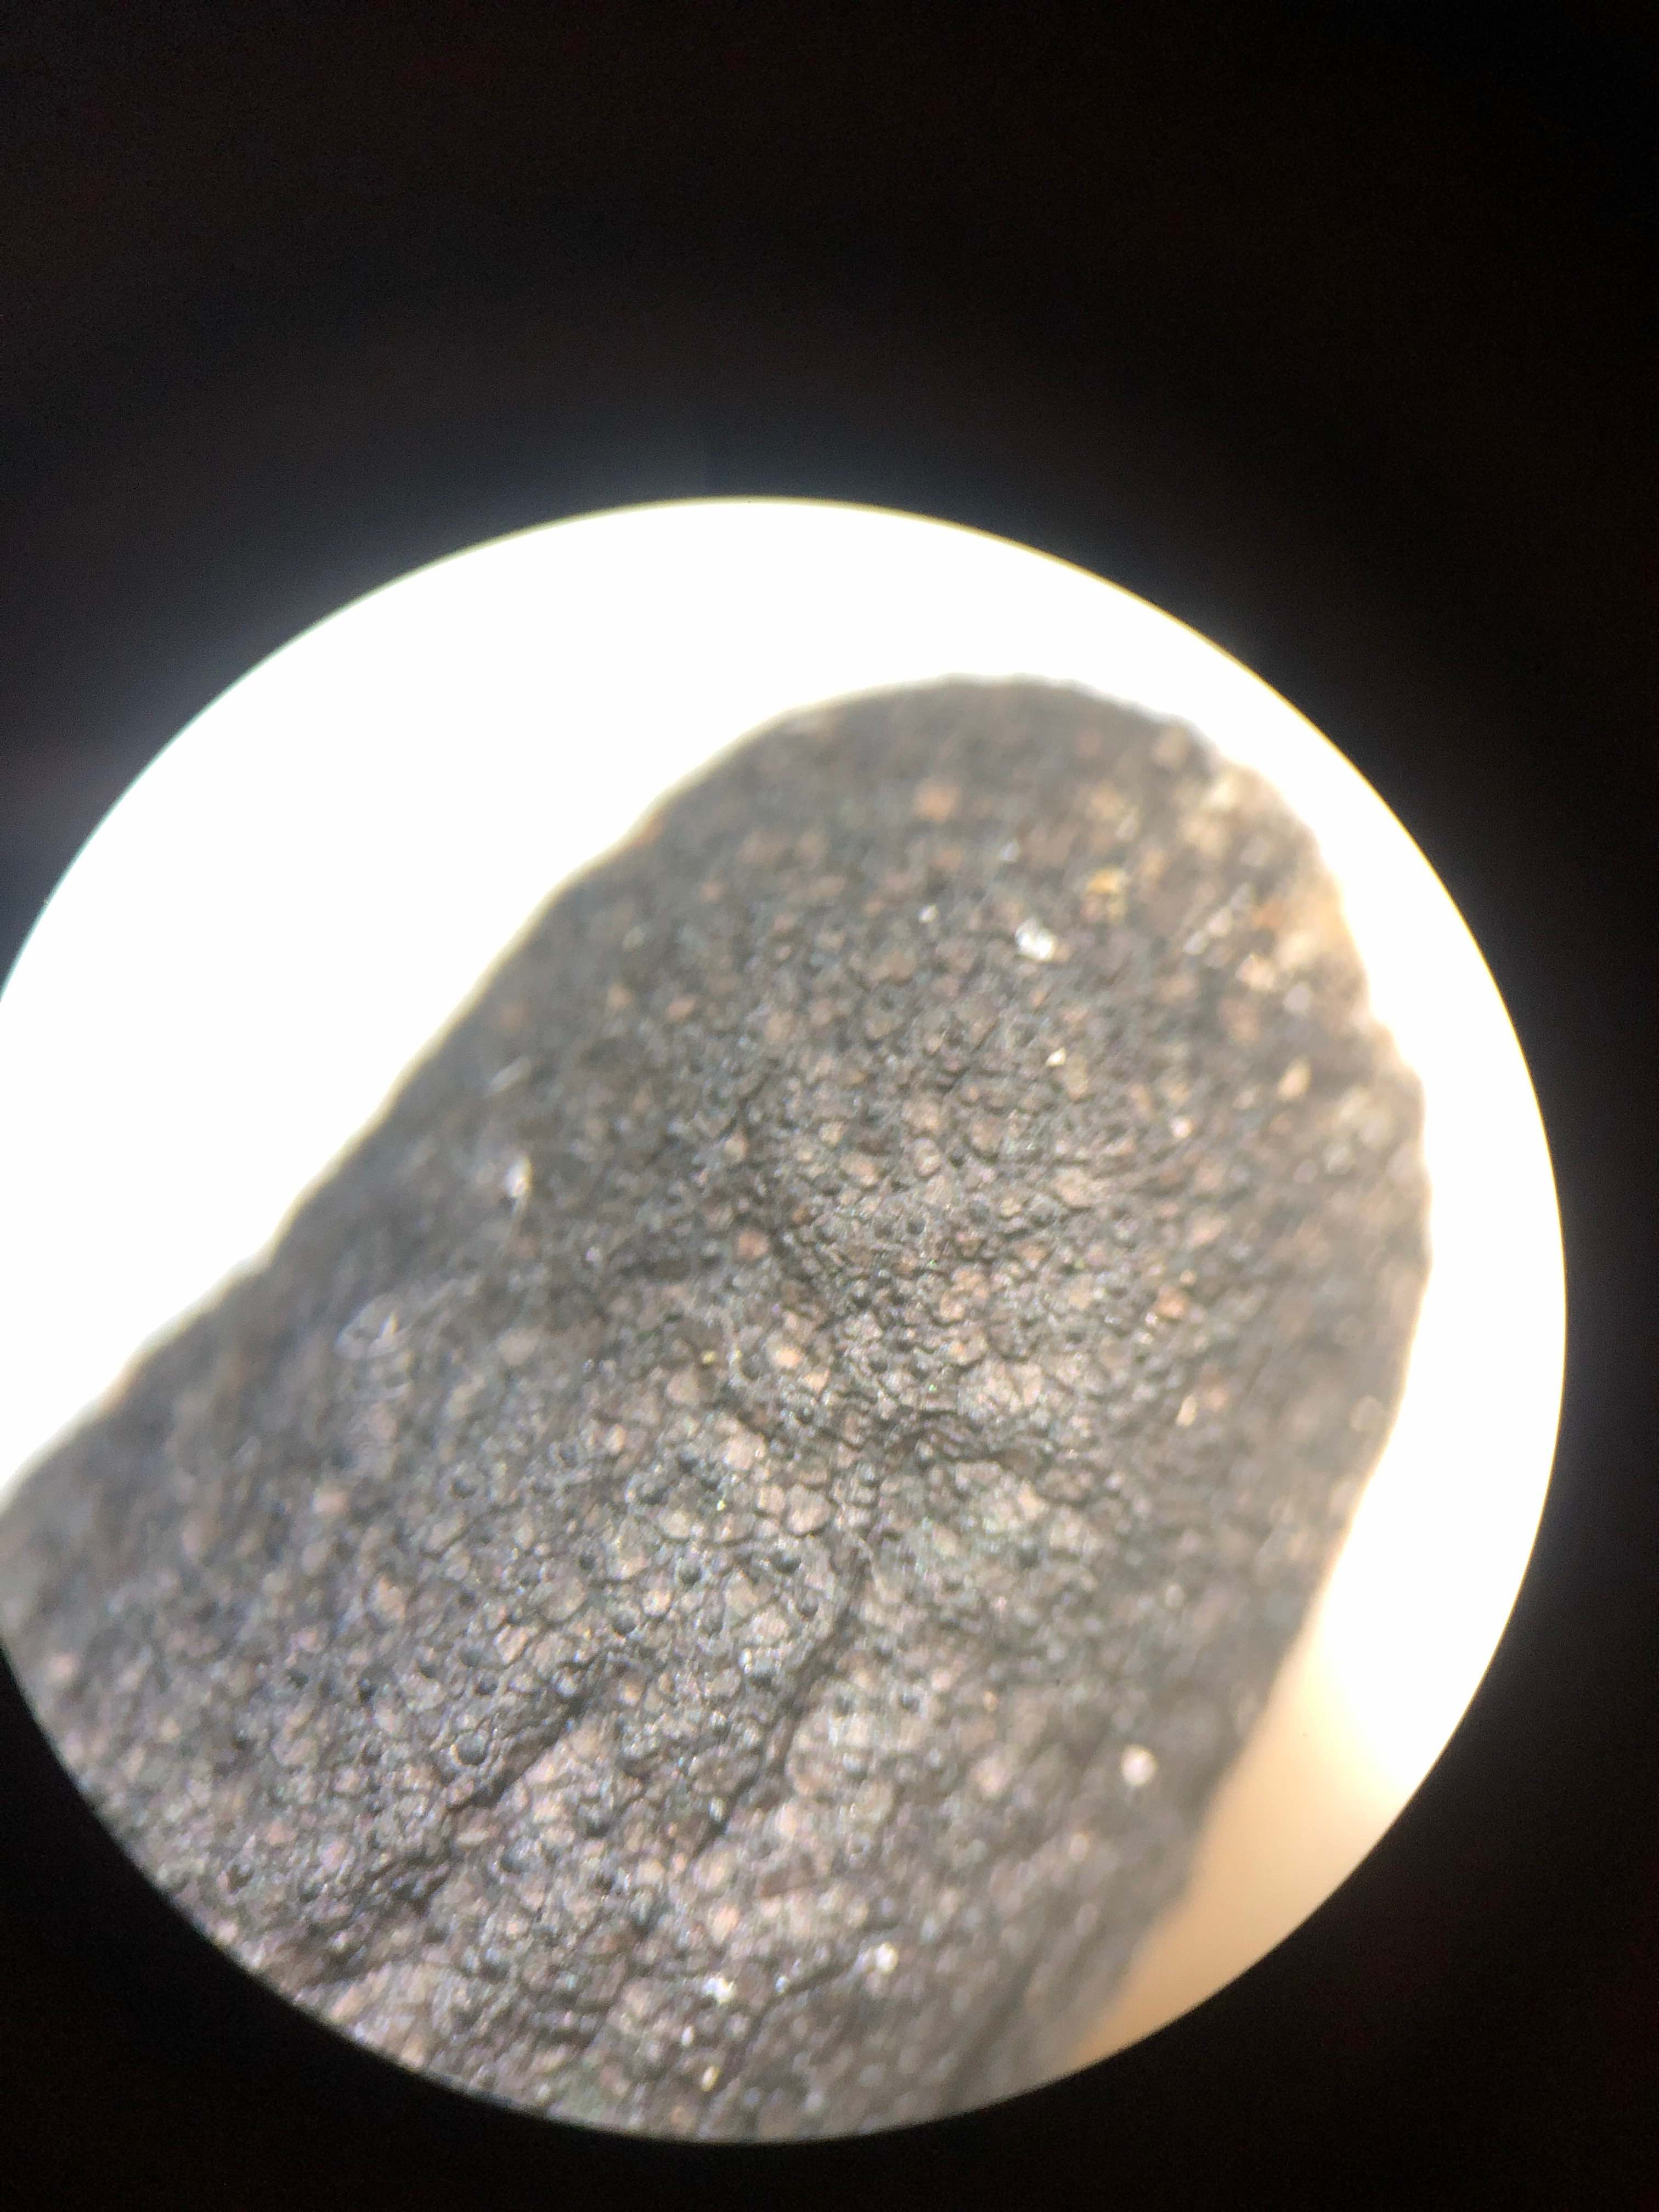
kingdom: Fungi
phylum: Ascomycota
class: Sordariomycetes
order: Xylariales
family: Xylariaceae
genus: Xylaria
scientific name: Xylaria longipes
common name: slank stødsvamp
